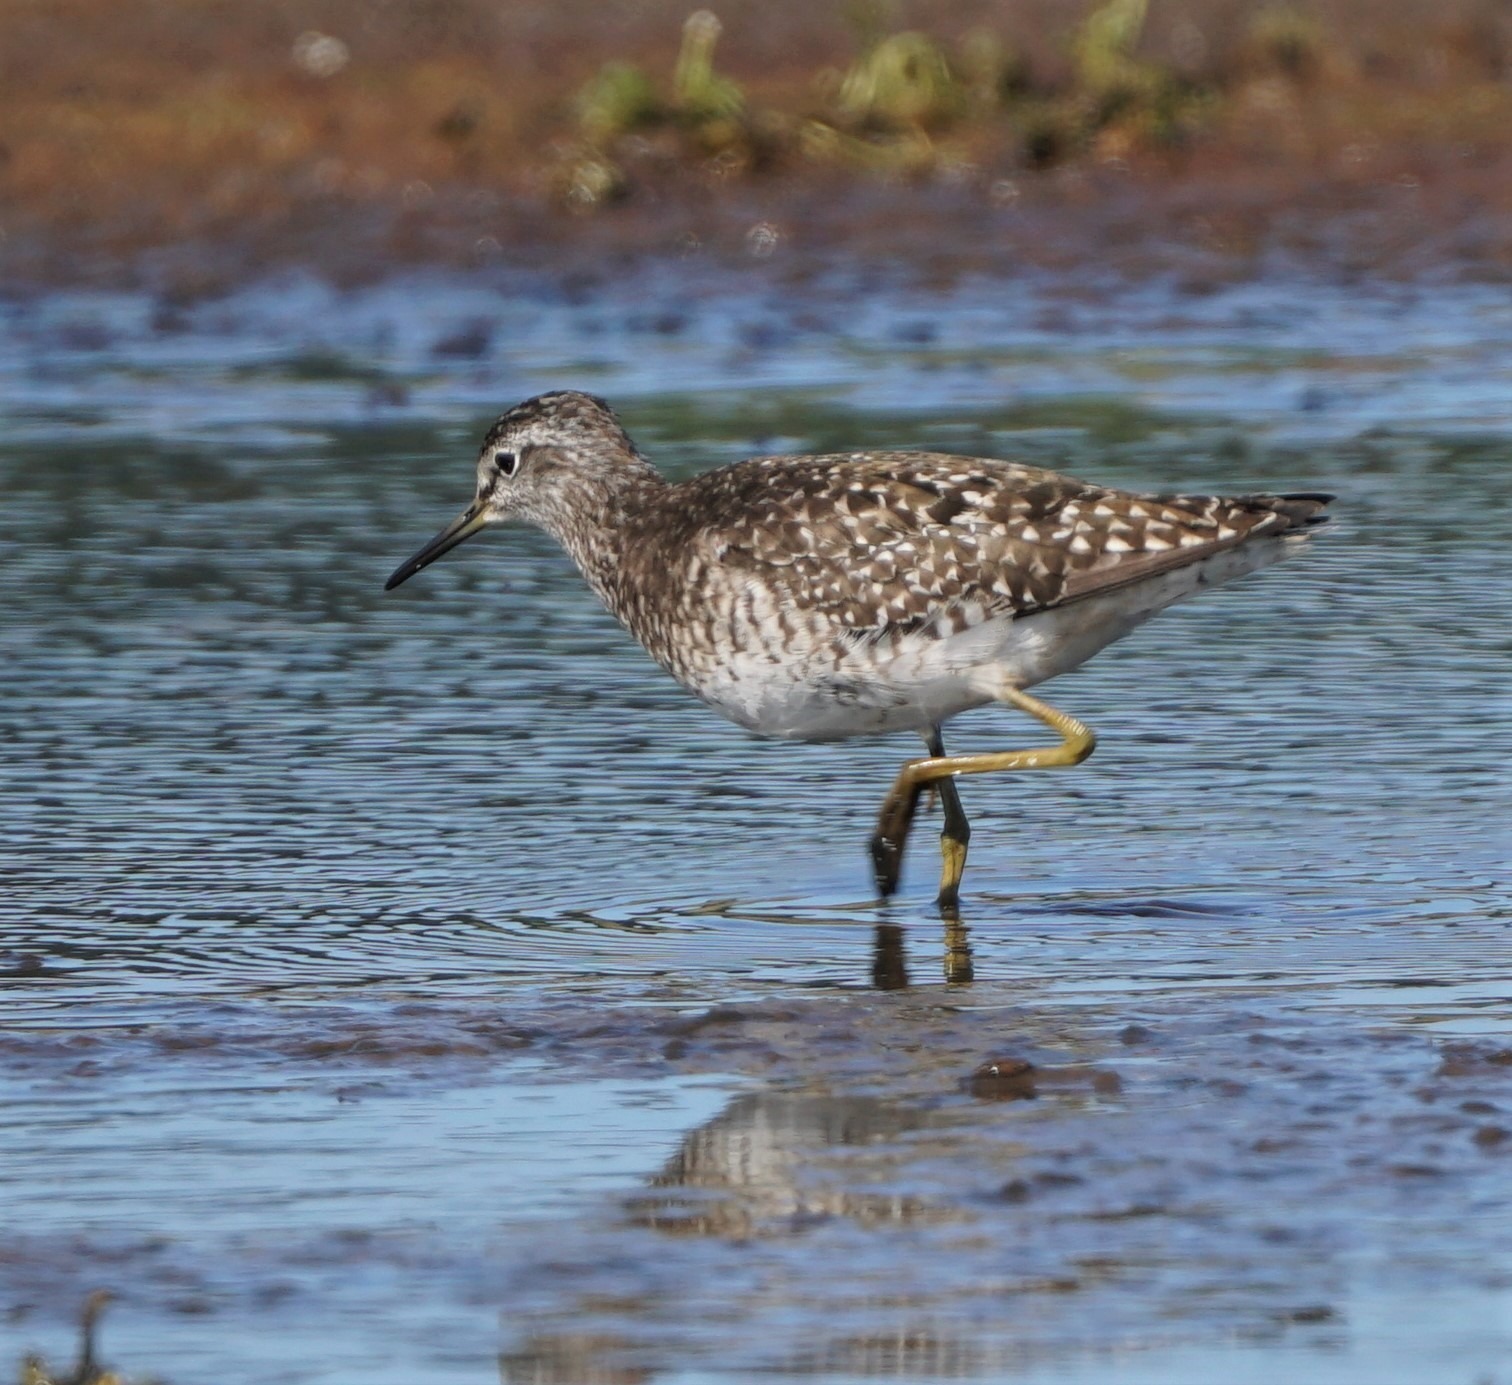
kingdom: Animalia
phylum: Chordata
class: Aves
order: Charadriiformes
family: Scolopacidae
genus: Tringa
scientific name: Tringa glareola
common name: Tinksmed
